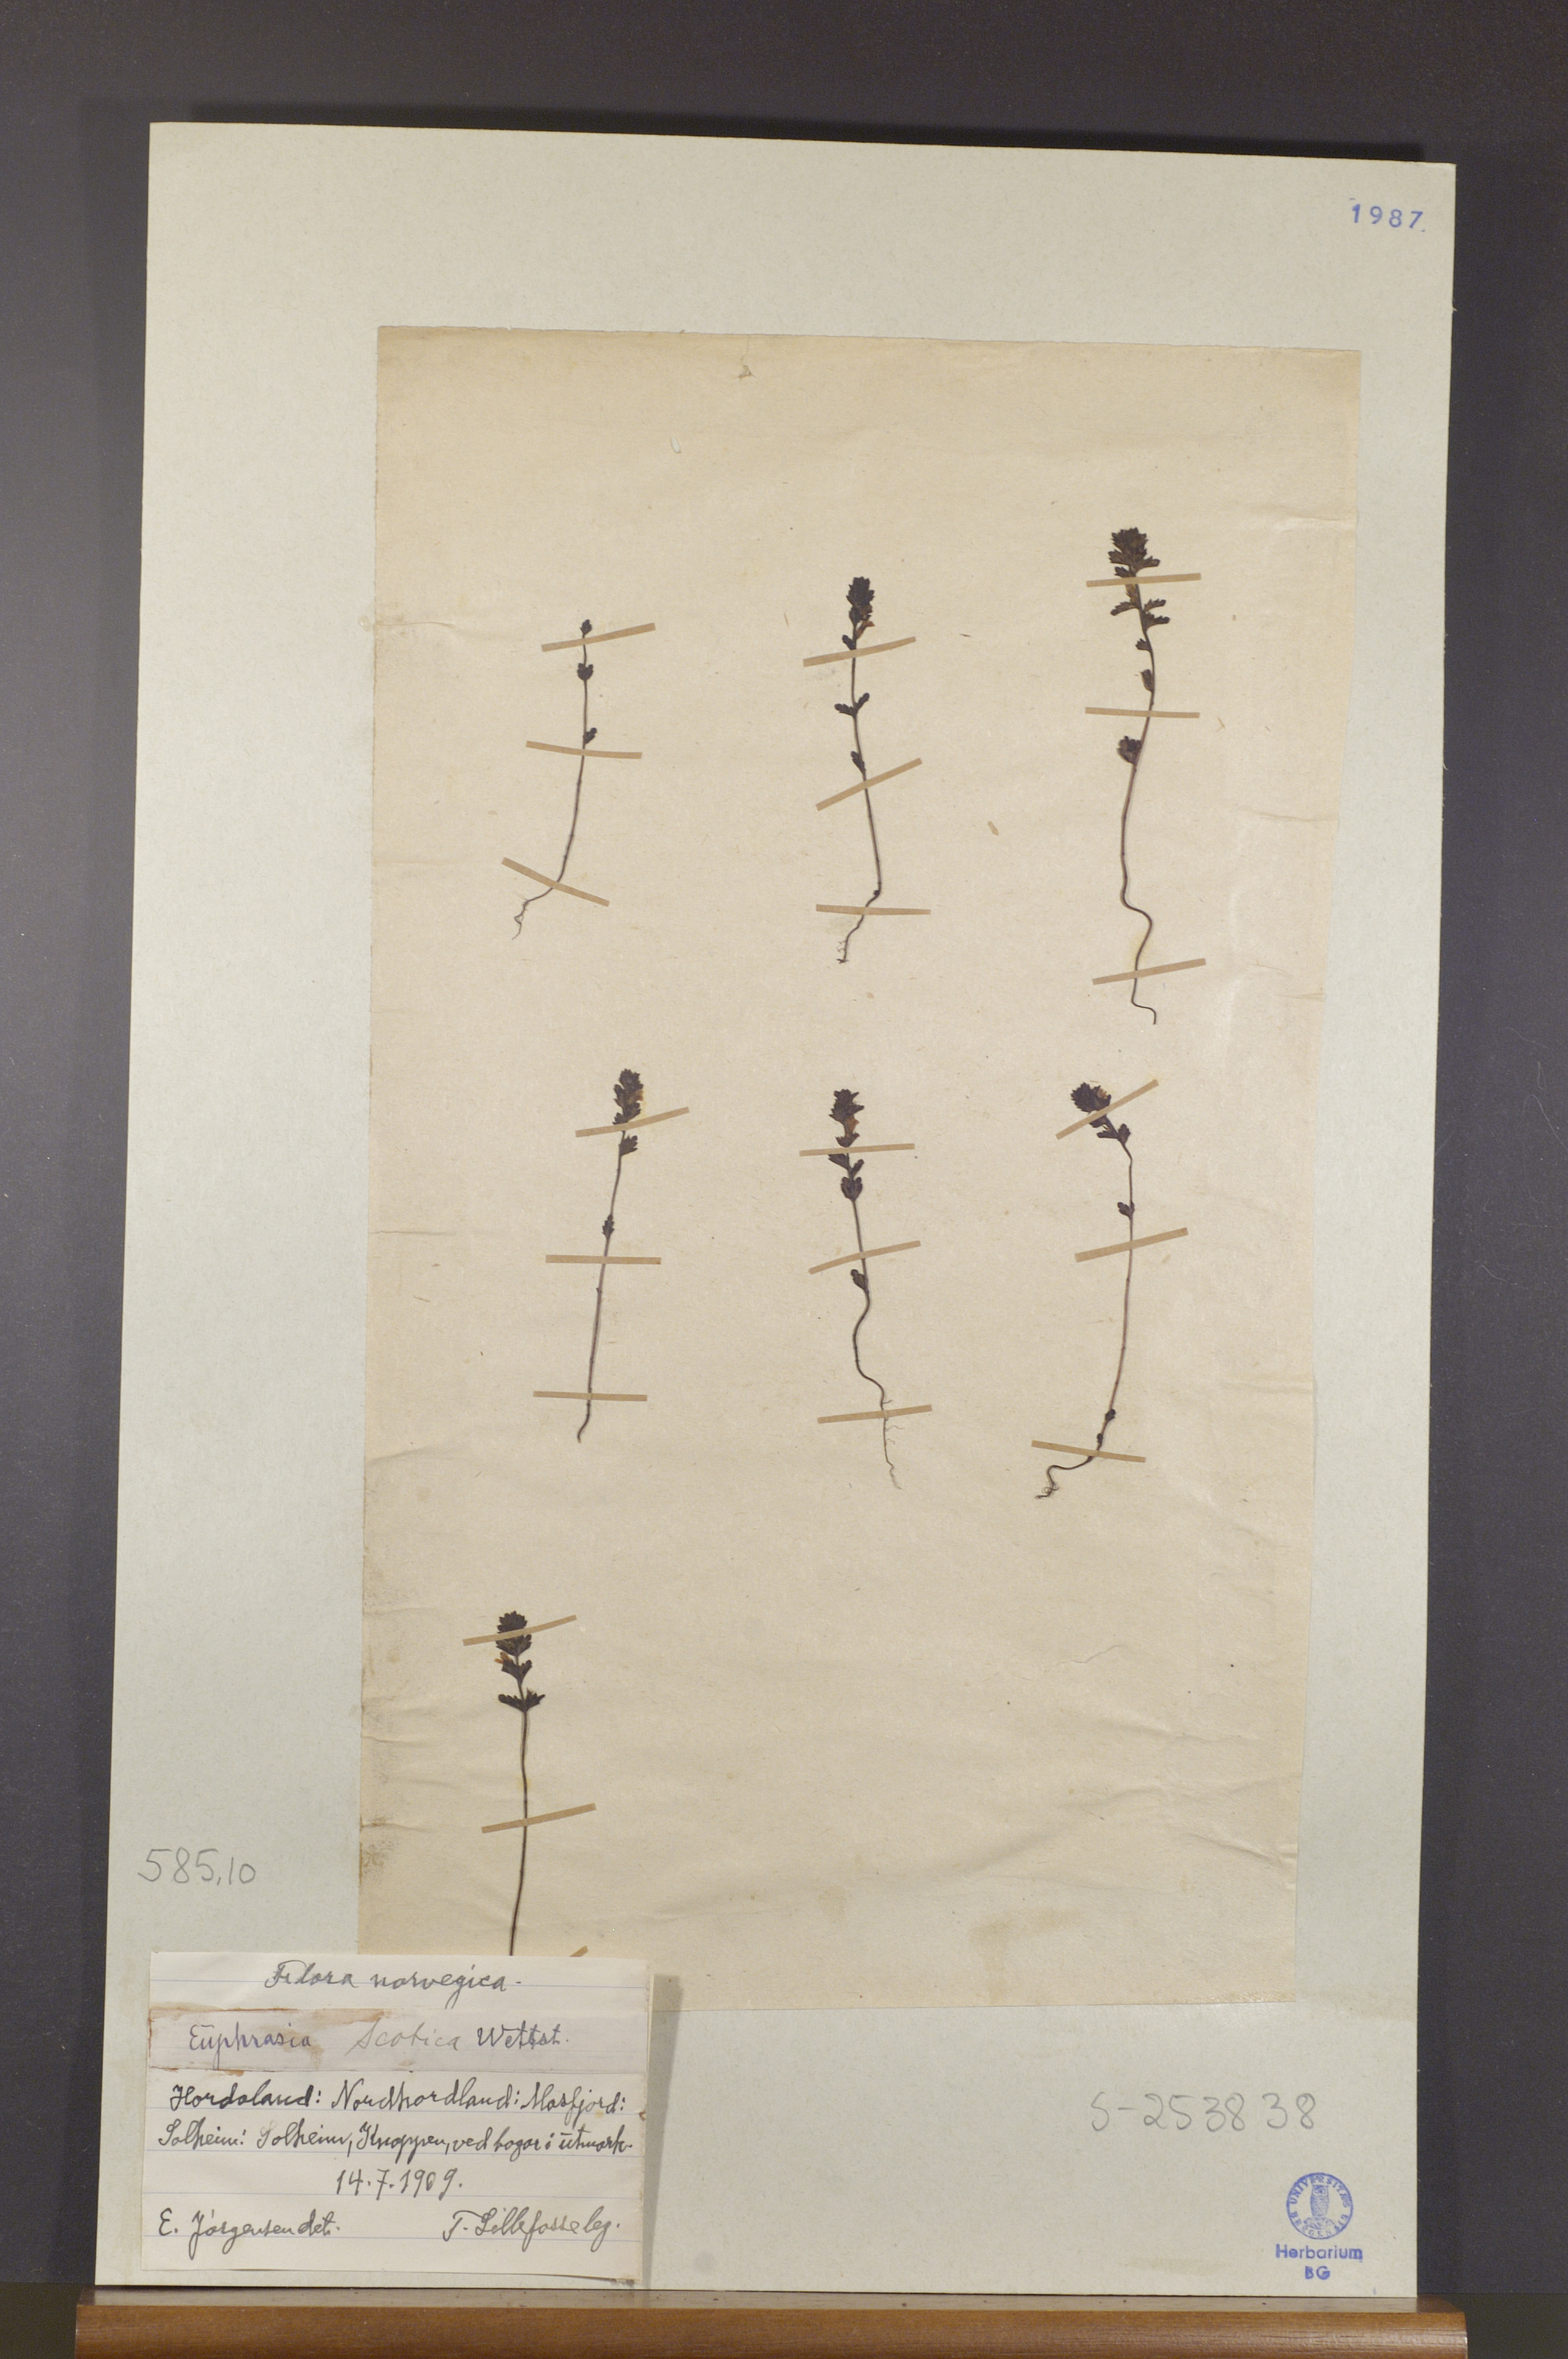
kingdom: Plantae
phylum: Tracheophyta
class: Magnoliopsida
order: Lamiales
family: Orobanchaceae
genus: Euphrasia
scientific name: Euphrasia scottica
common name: Slender scottish eyebright
